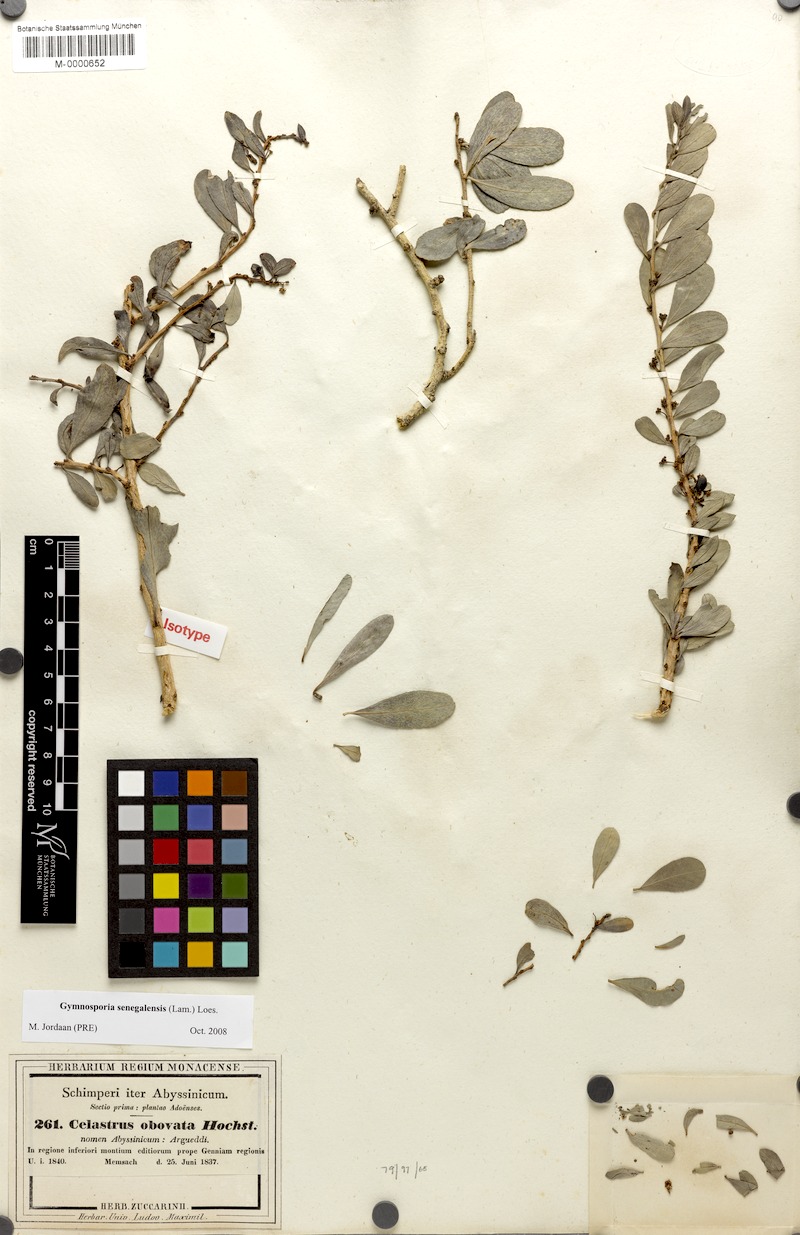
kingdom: Plantae
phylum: Tracheophyta
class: Magnoliopsida
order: Celastrales
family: Celastraceae
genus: Gymnosporia
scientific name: Gymnosporia senegalensis
